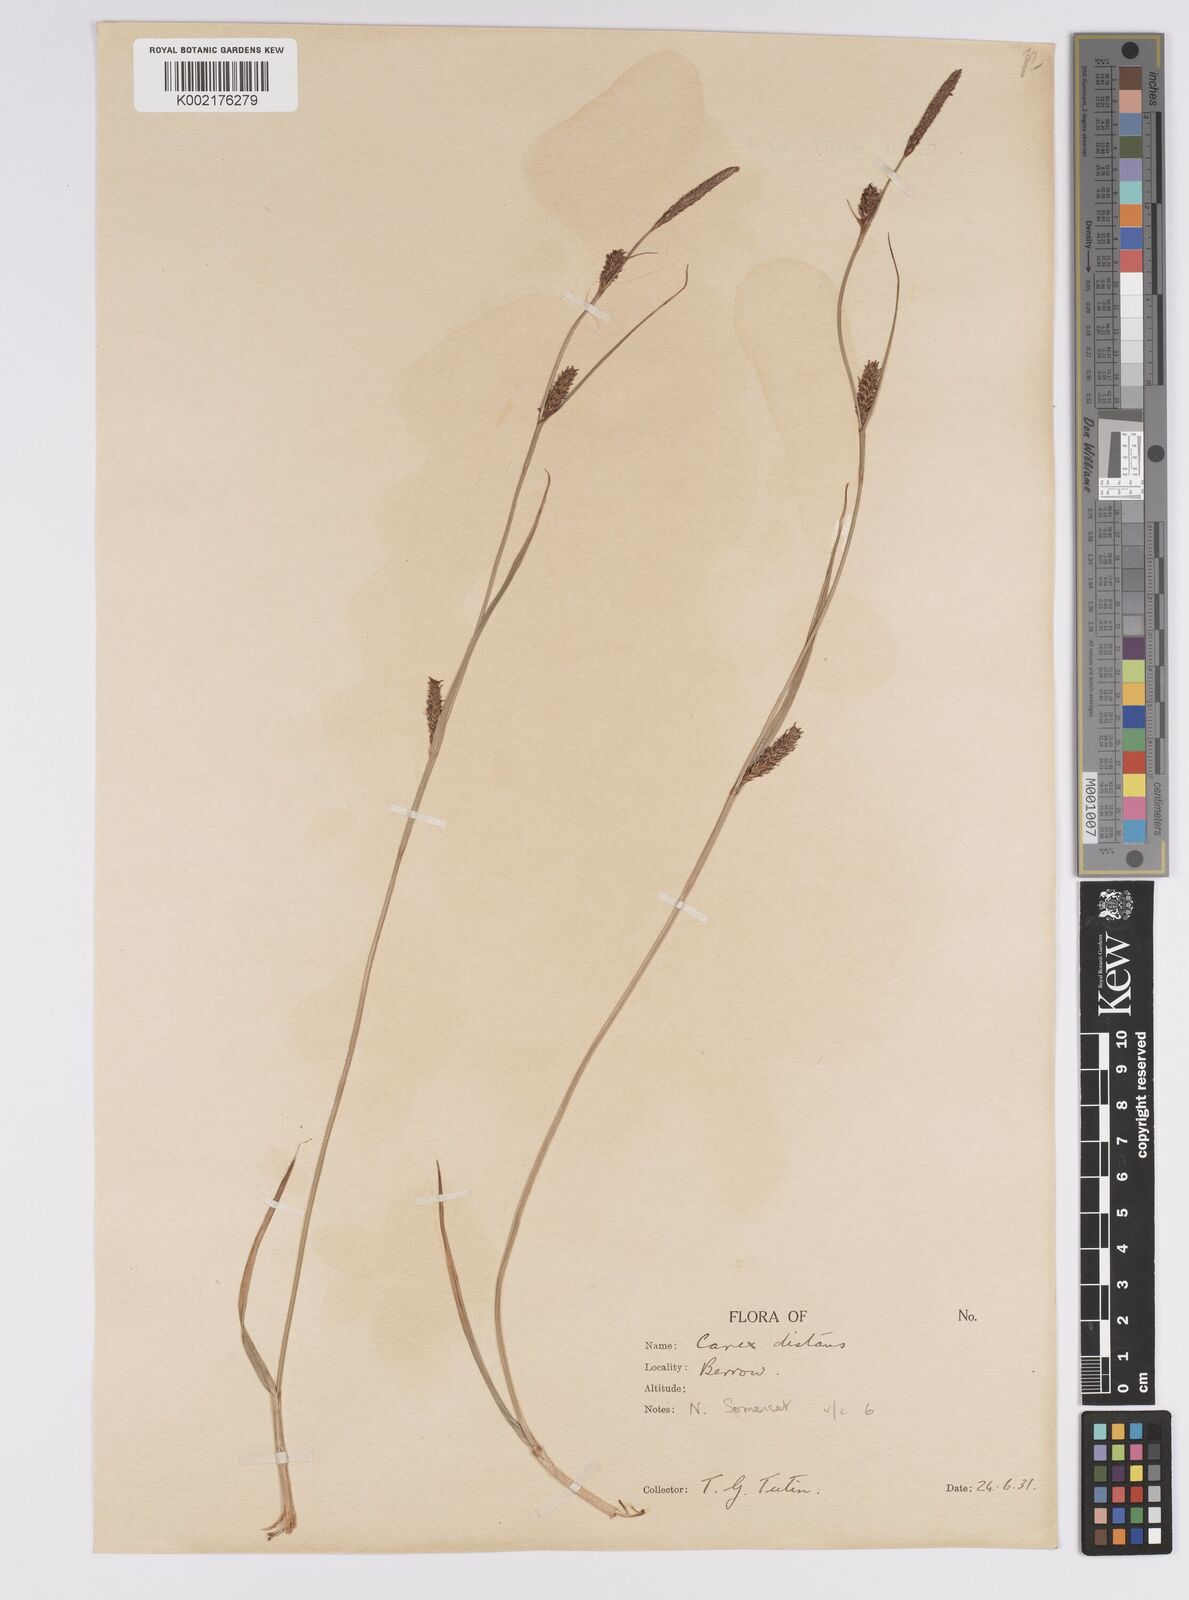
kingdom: Plantae
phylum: Tracheophyta
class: Liliopsida
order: Poales
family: Cyperaceae
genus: Carex
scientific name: Carex distans
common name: Distant sedge
